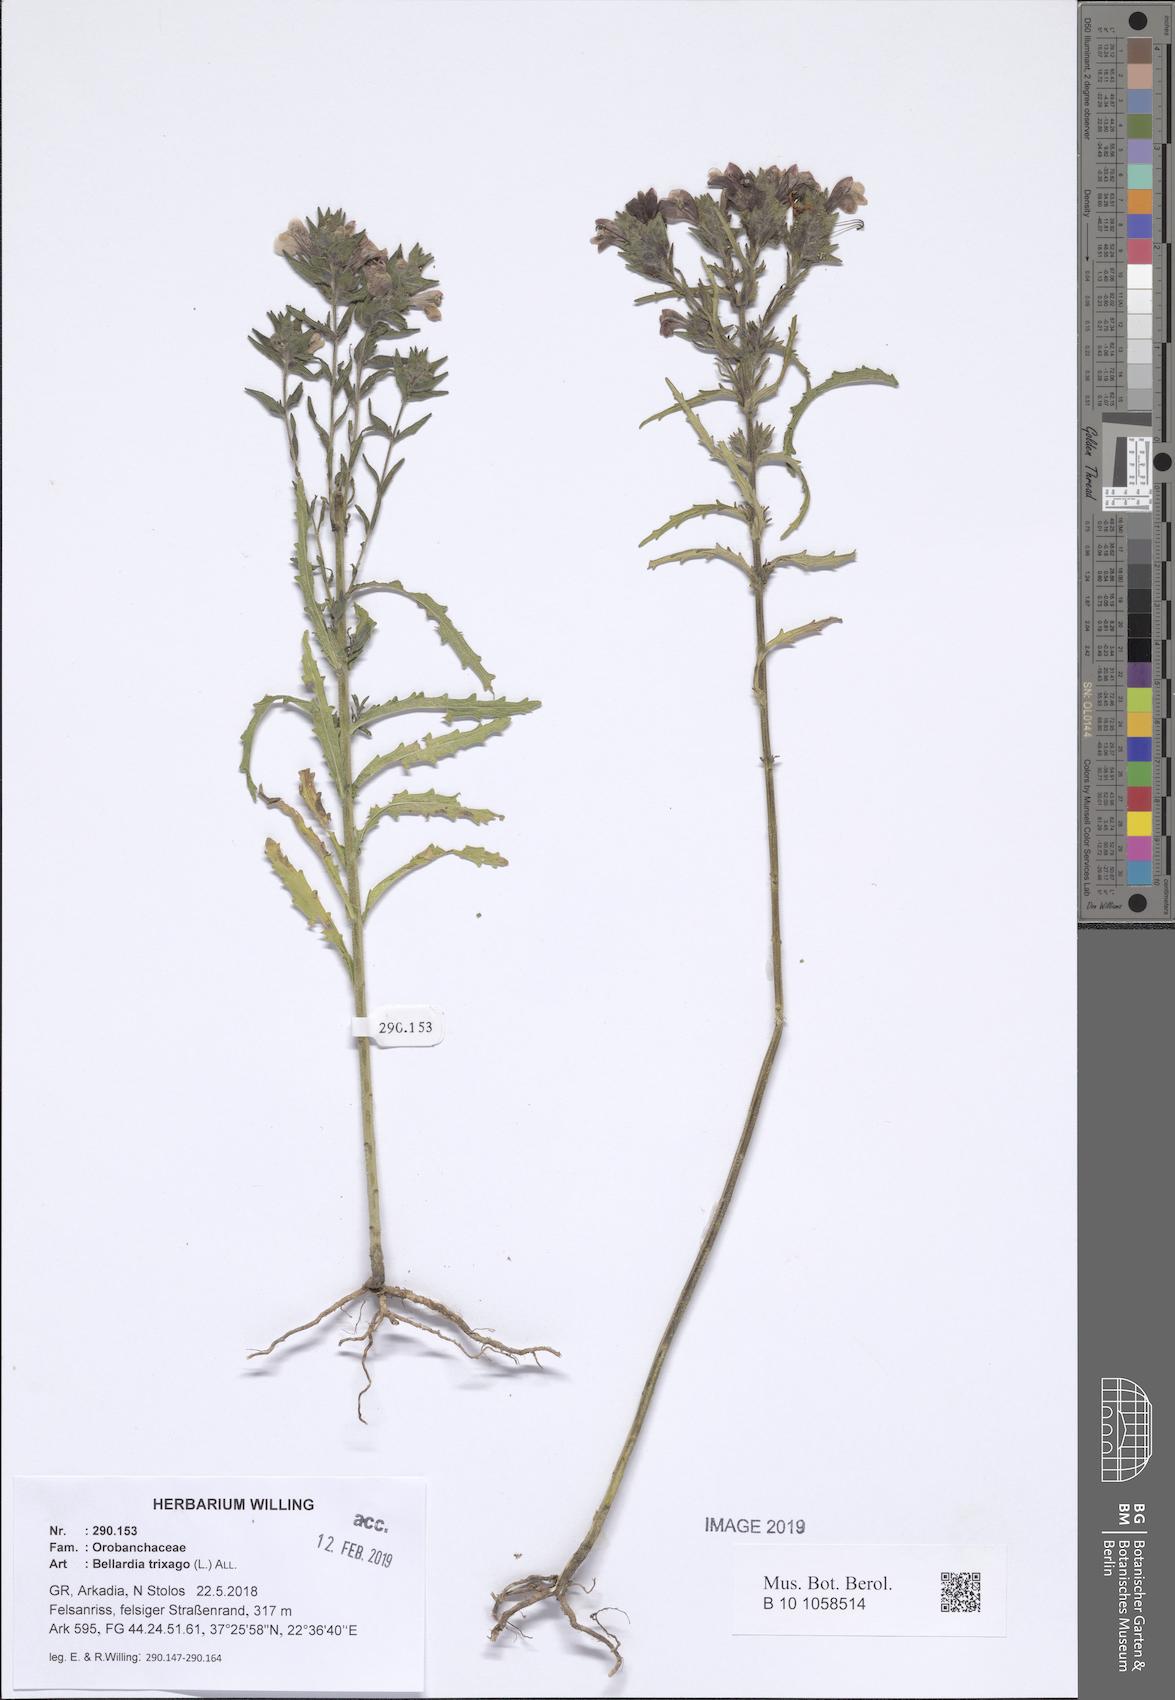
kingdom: Plantae
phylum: Tracheophyta
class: Magnoliopsida
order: Lamiales
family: Orobanchaceae
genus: Bellardia
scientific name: Bellardia trixago
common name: Mediterranean lineseed
